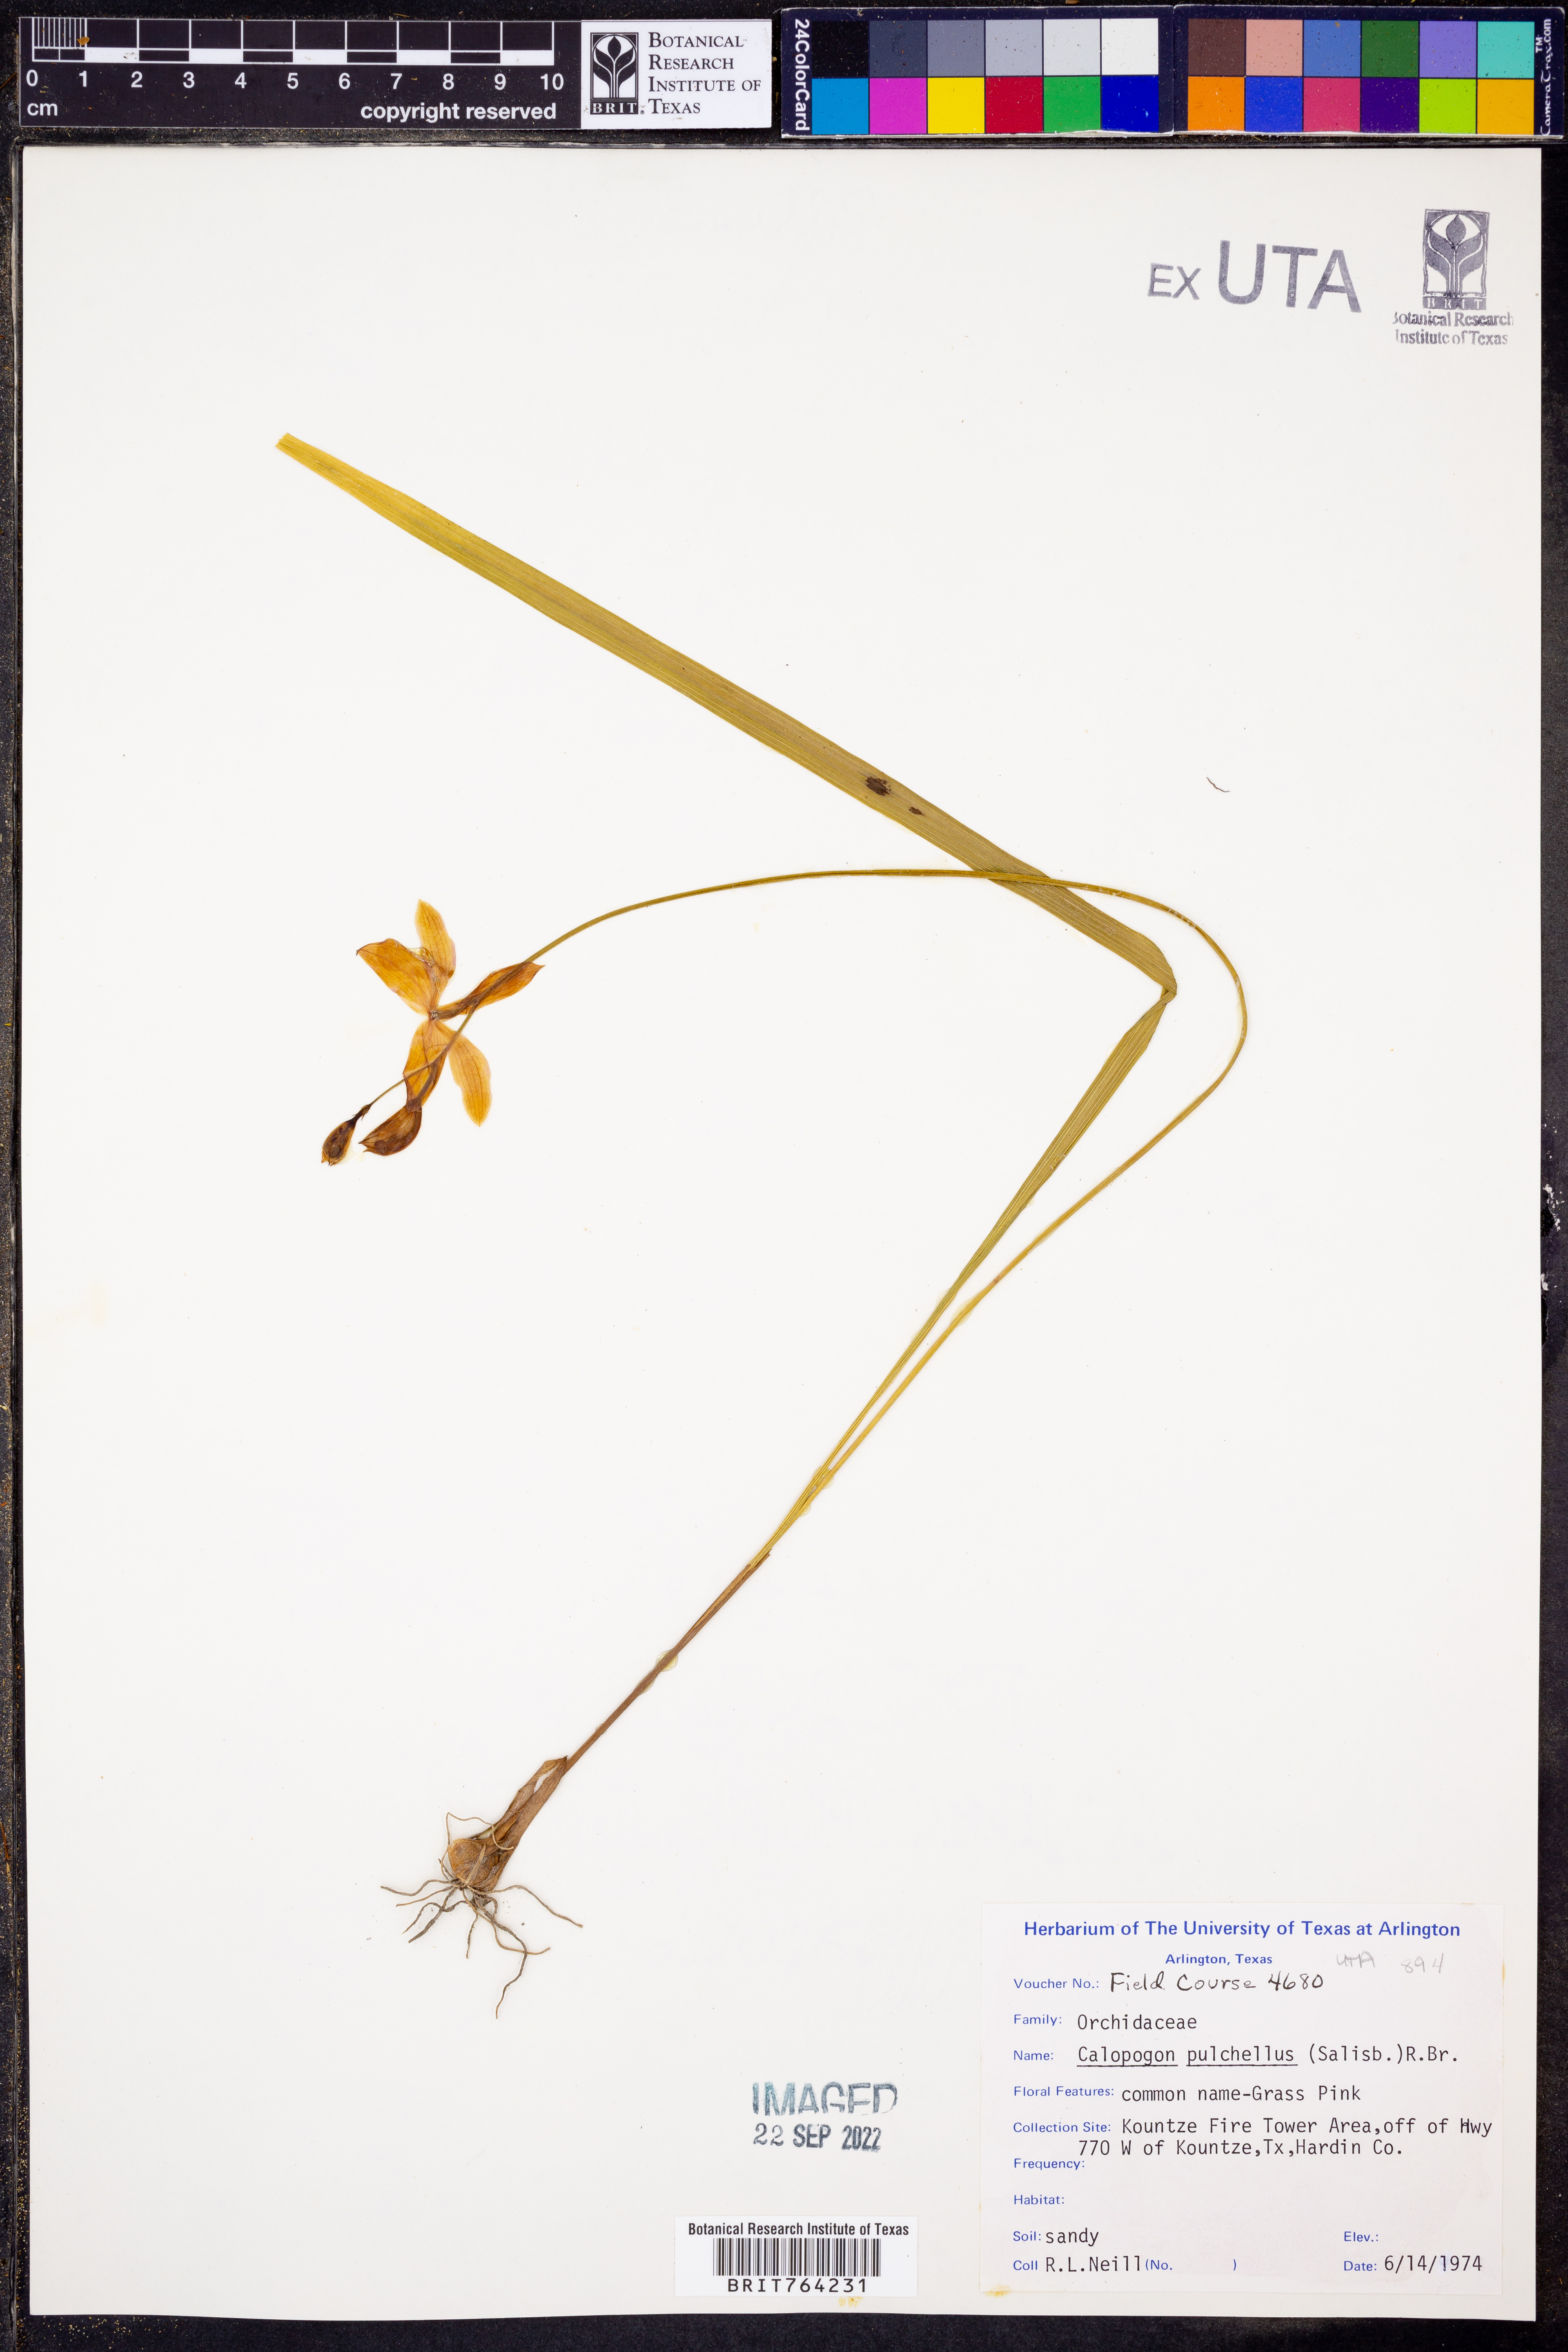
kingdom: Plantae
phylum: Tracheophyta
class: Liliopsida
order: Asparagales
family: Orchidaceae
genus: Calopogon
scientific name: Calopogon tuberosus
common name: Grass-pink
